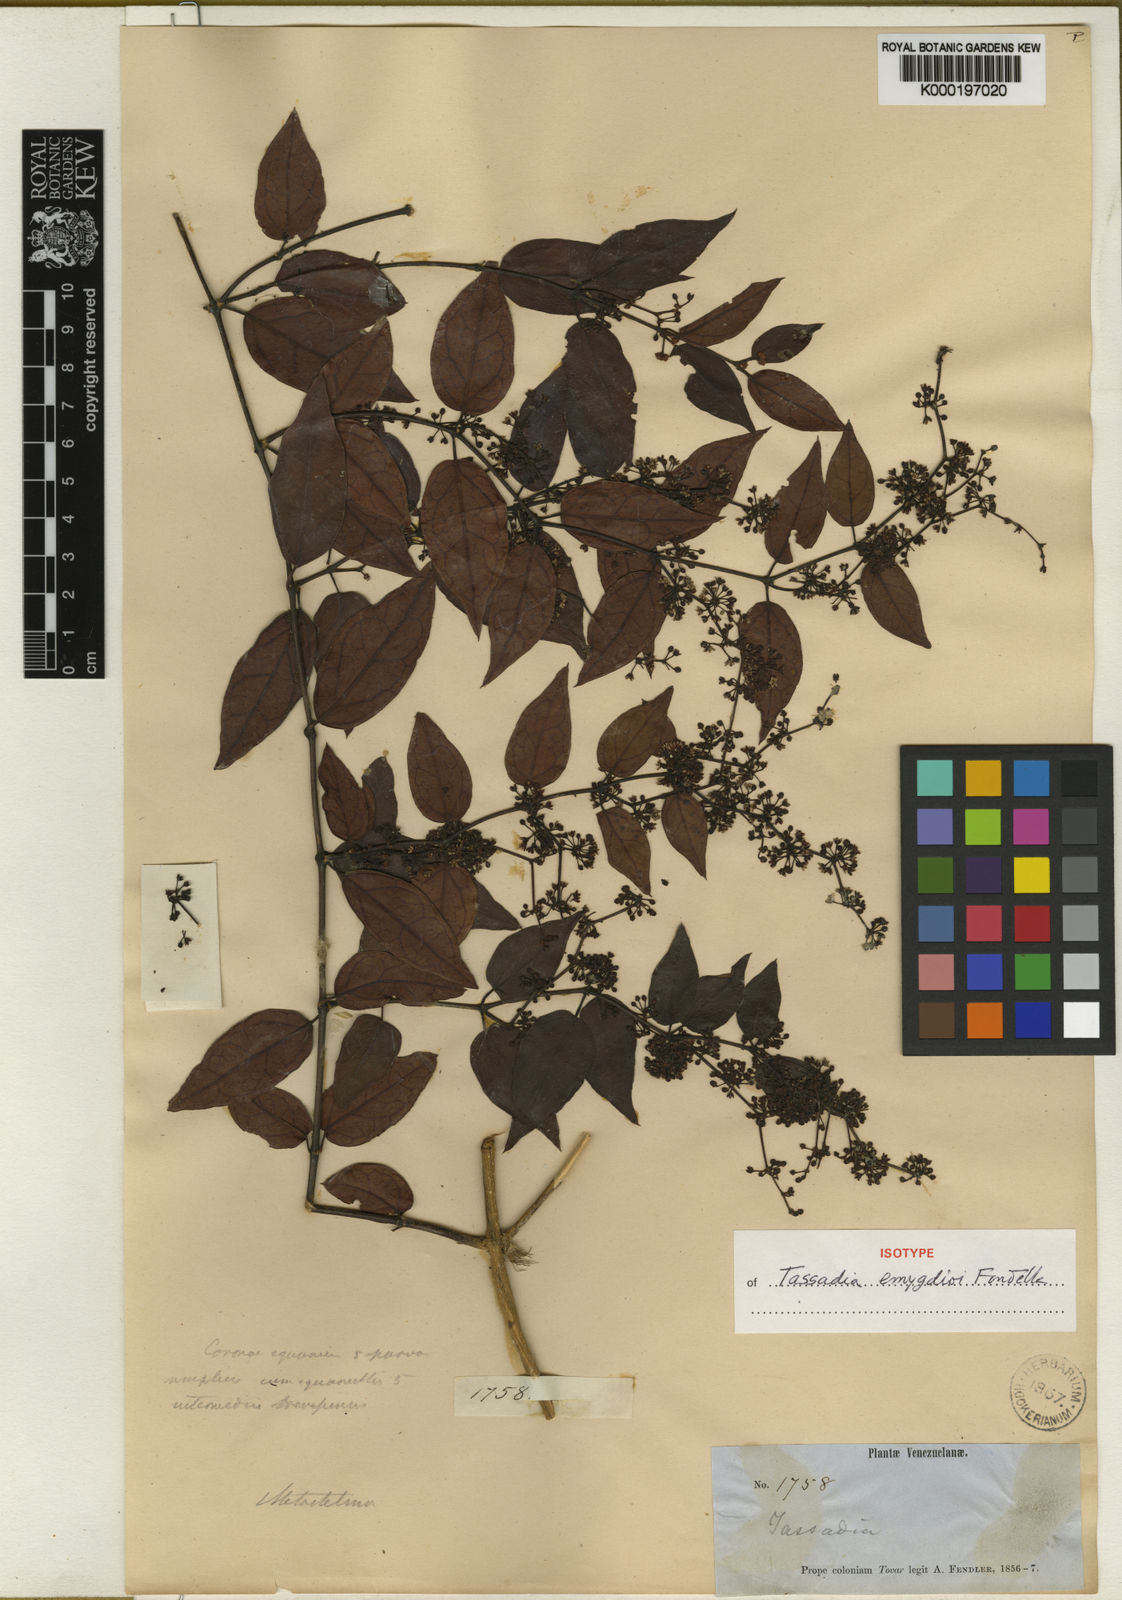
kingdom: Plantae
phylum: Tracheophyta
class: Magnoliopsida
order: Gentianales
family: Apocynaceae
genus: Tassadia
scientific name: Tassadia emygdioi
